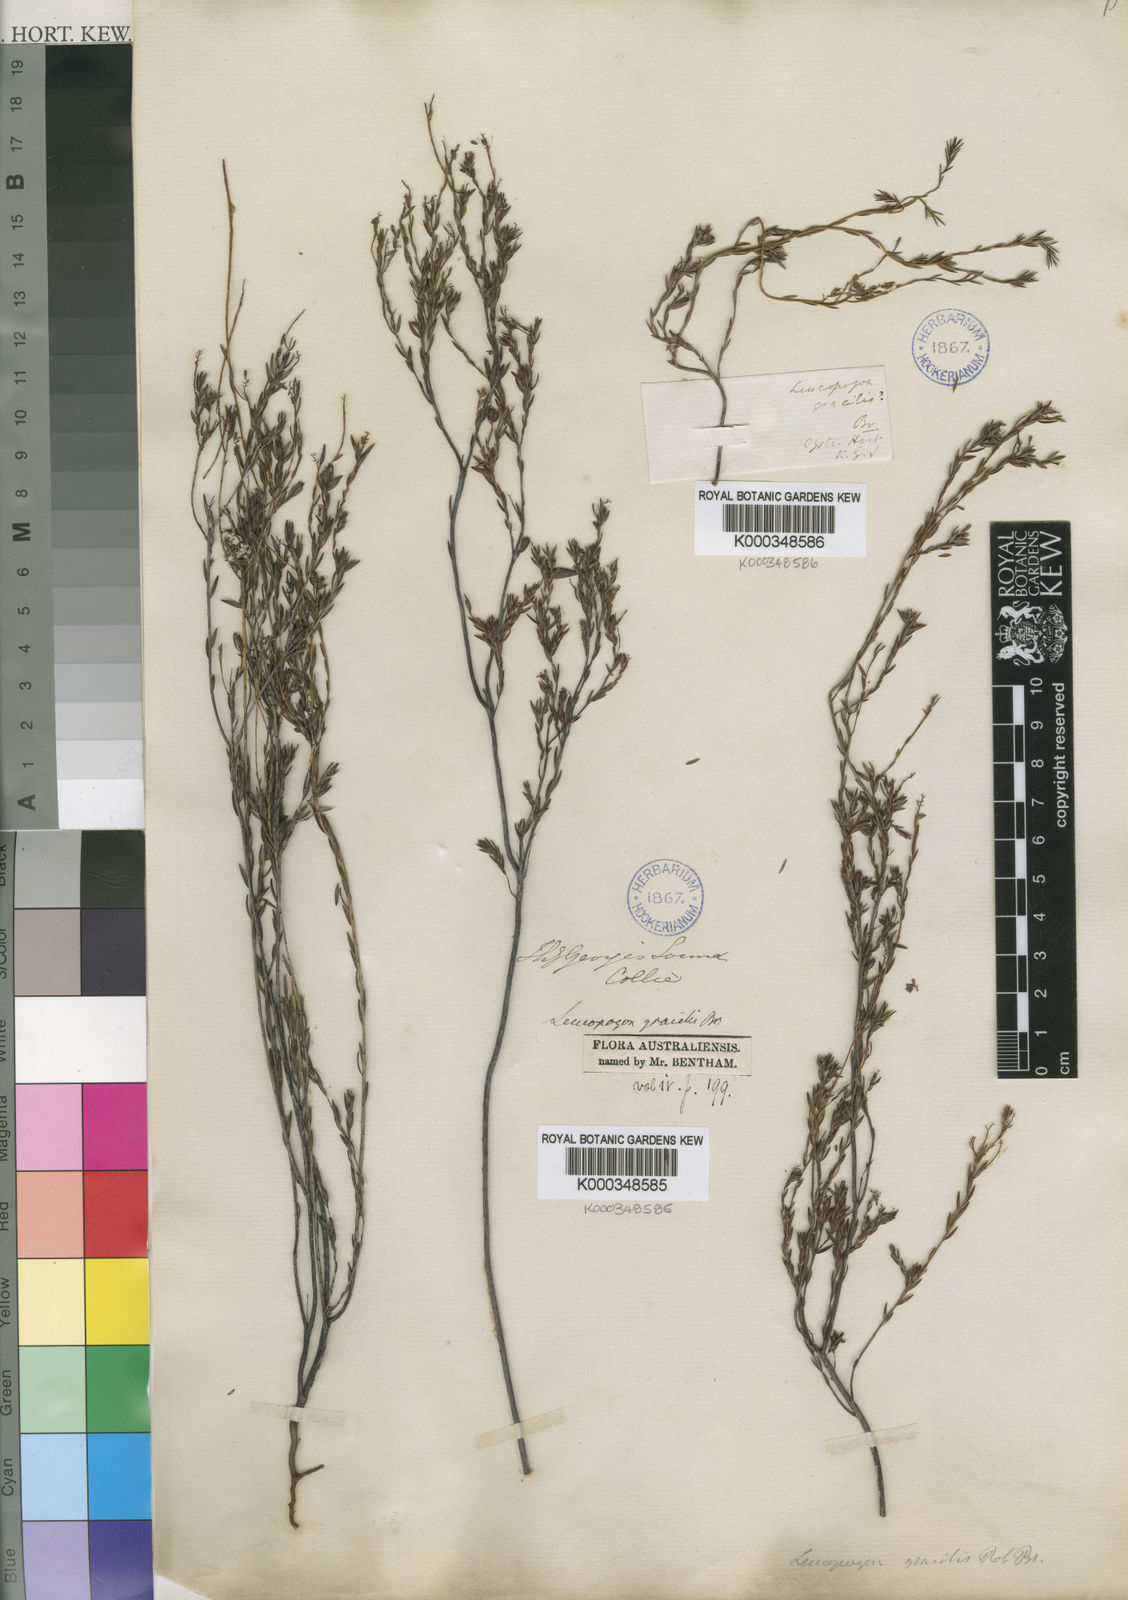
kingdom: Plantae
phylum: Tracheophyta
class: Magnoliopsida
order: Ericales
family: Ericaceae
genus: Leucopogon
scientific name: Leucopogon gracilis
